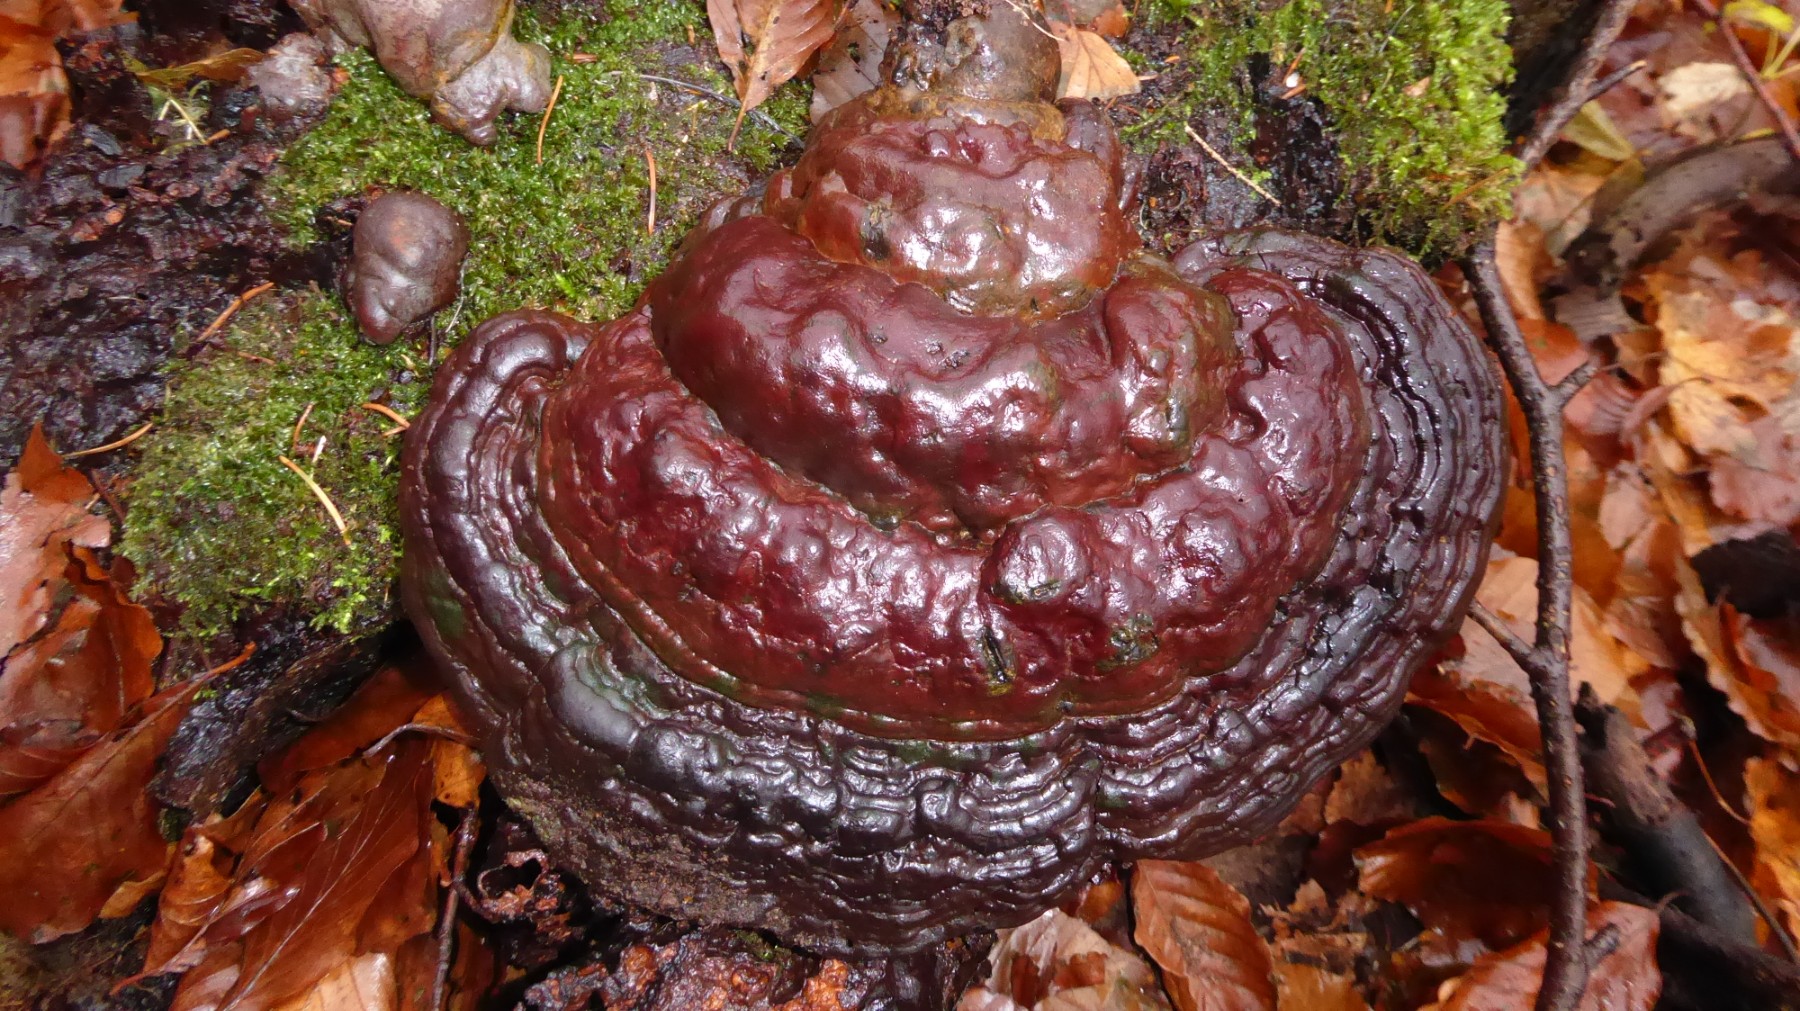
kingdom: Fungi
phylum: Basidiomycota
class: Agaricomycetes
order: Polyporales
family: Polyporaceae
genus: Ganoderma
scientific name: Ganoderma pfeifferi
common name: kobberrød lakporesvamp
